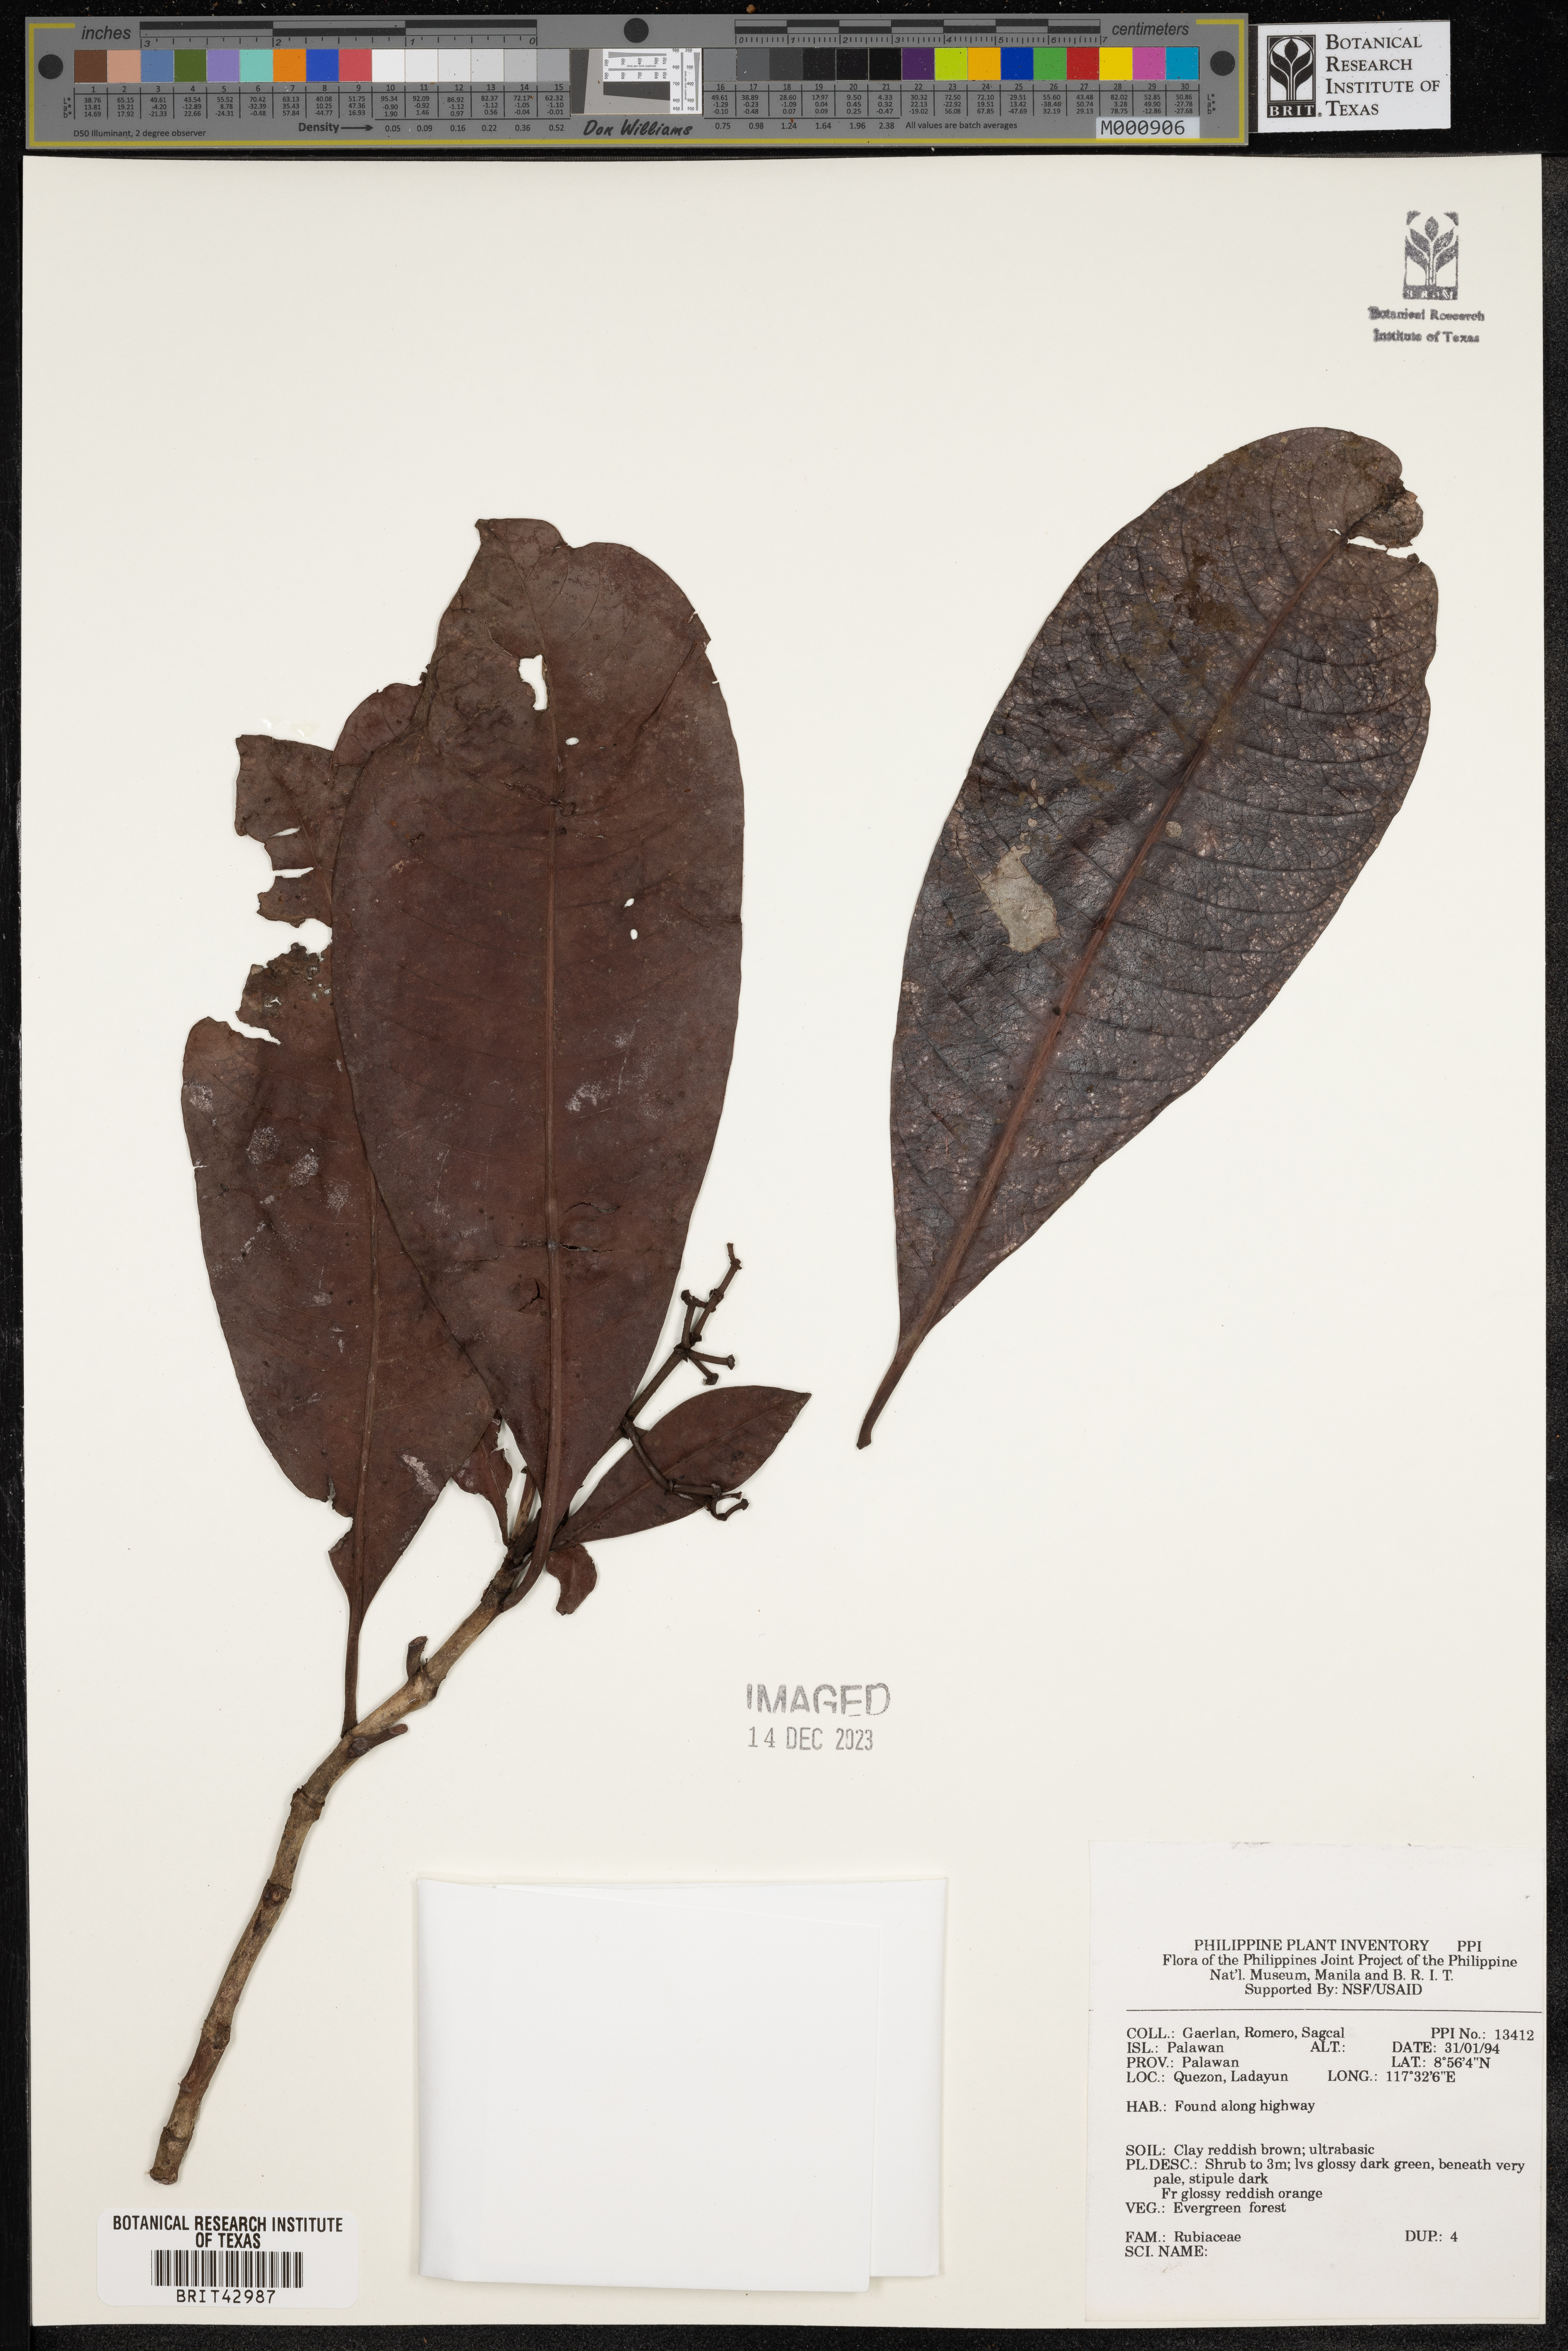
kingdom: Plantae
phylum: Tracheophyta
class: Magnoliopsida
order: Gentianales
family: Rubiaceae
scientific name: Rubiaceae
